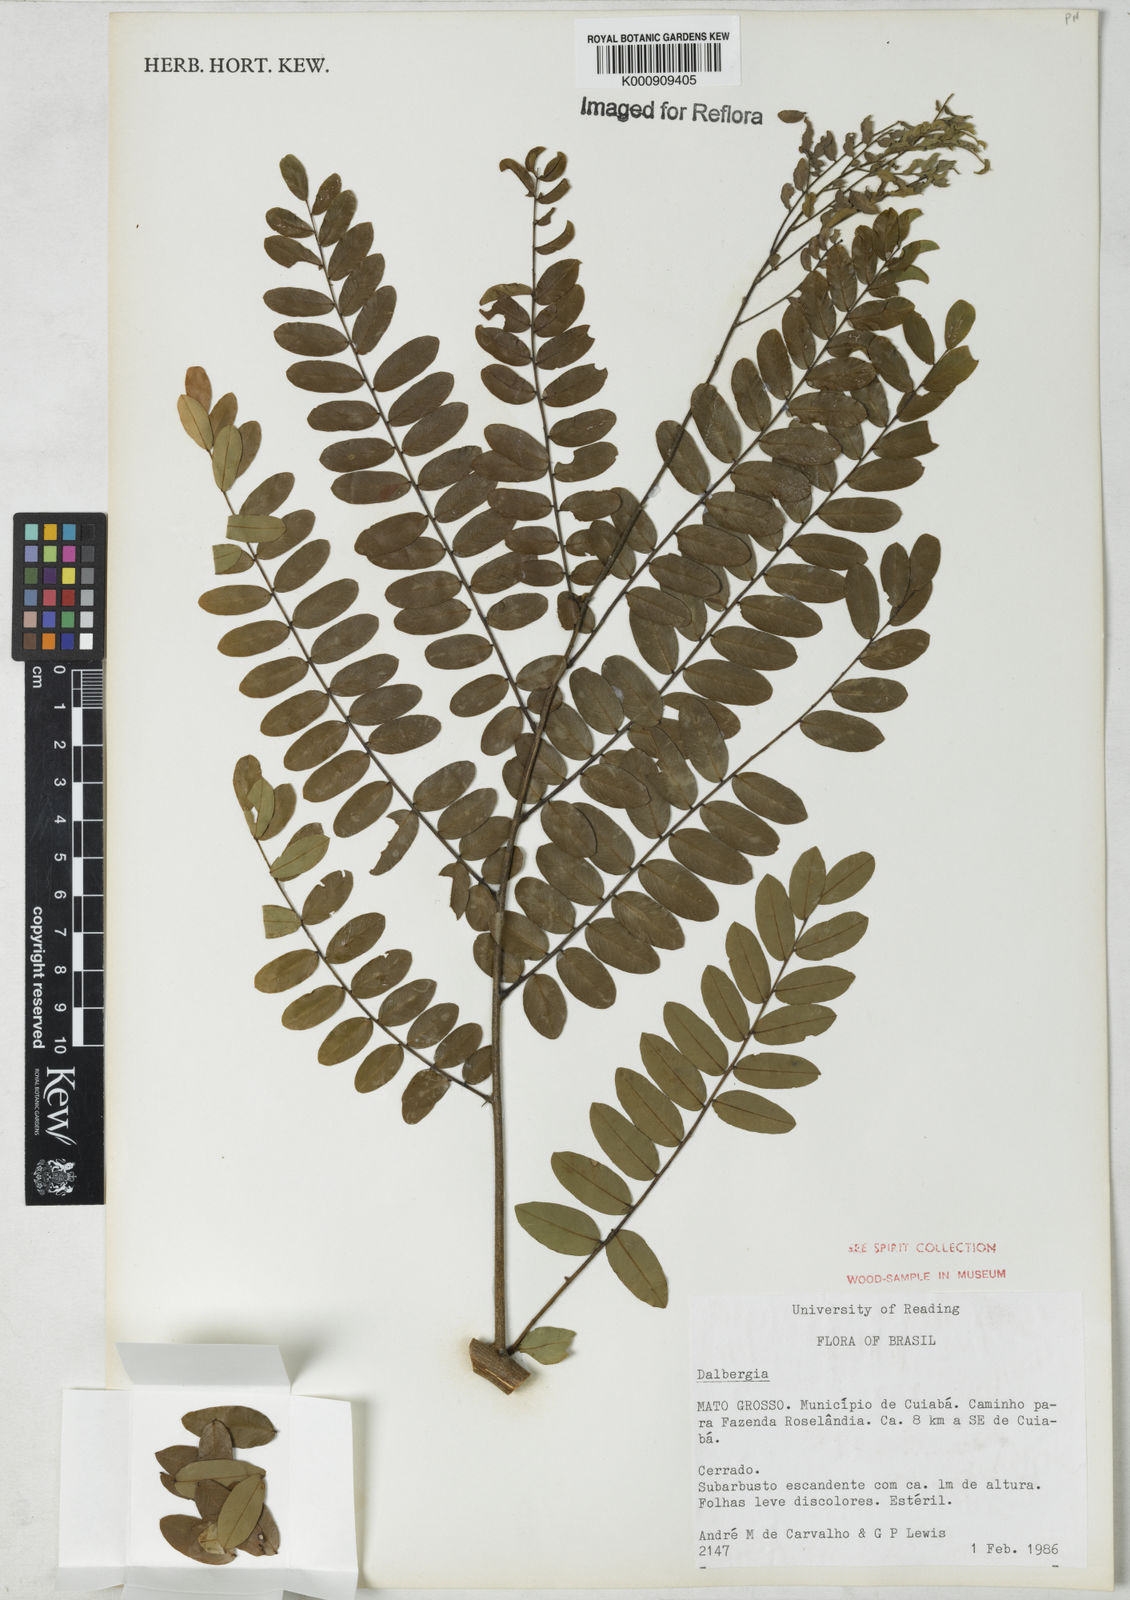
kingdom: Plantae
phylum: Tracheophyta
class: Magnoliopsida
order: Fabales
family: Fabaceae
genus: Dalbergia
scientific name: Dalbergia
